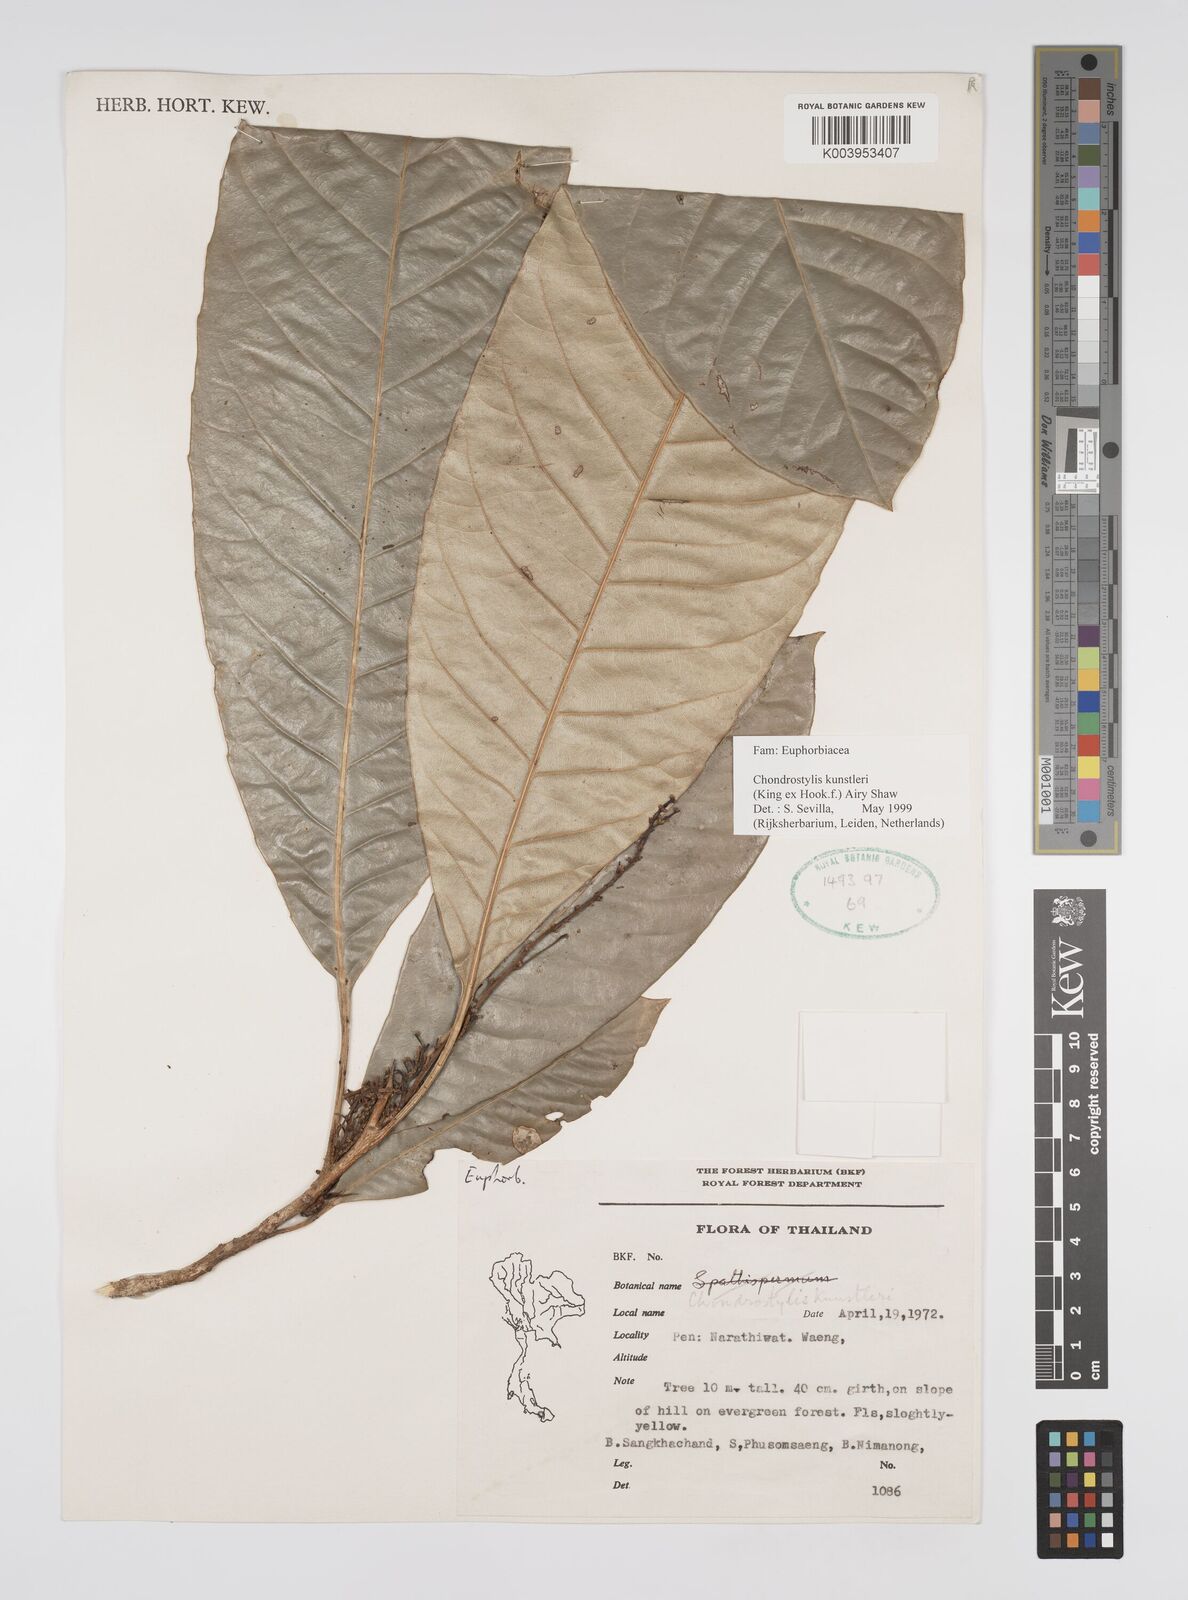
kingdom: Plantae
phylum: Tracheophyta
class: Magnoliopsida
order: Malpighiales
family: Euphorbiaceae
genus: Chondrostylis
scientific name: Chondrostylis kunstleri
